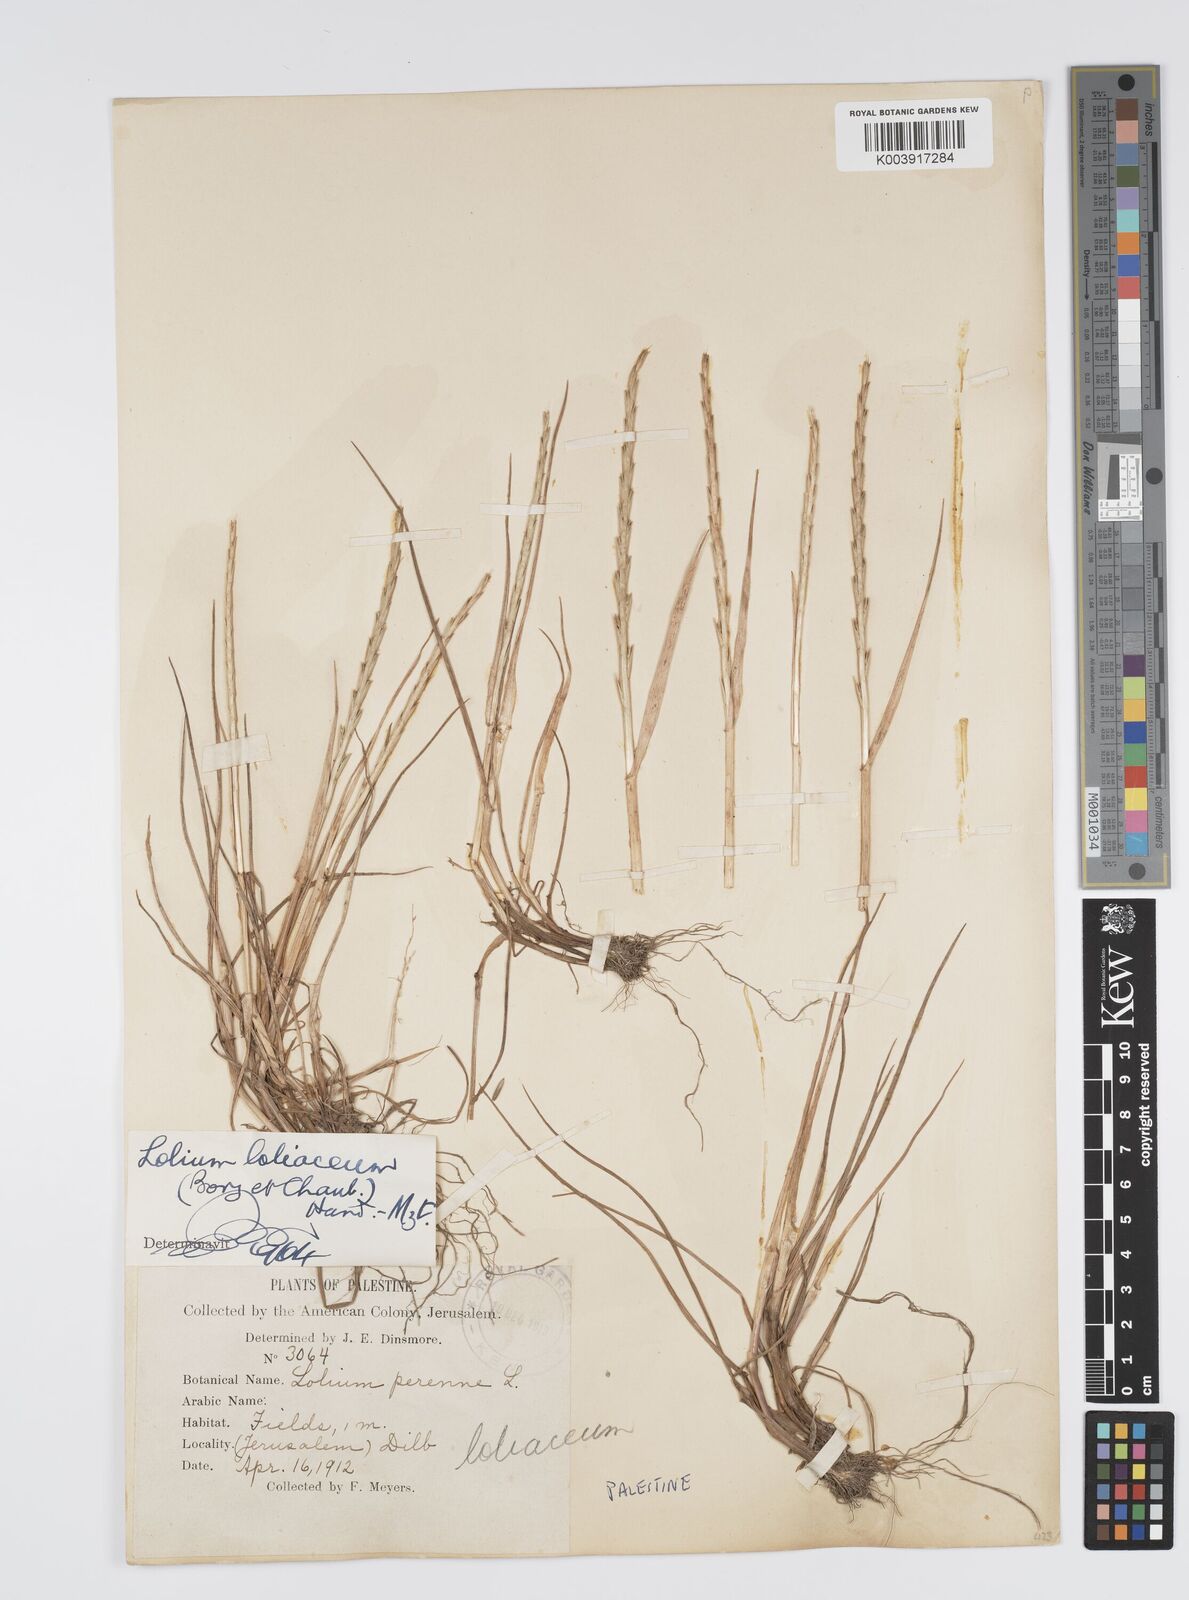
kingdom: Plantae
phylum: Tracheophyta
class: Liliopsida
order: Poales
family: Poaceae
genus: Lolium
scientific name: Lolium rigidum
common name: Wimmera ryegrass
